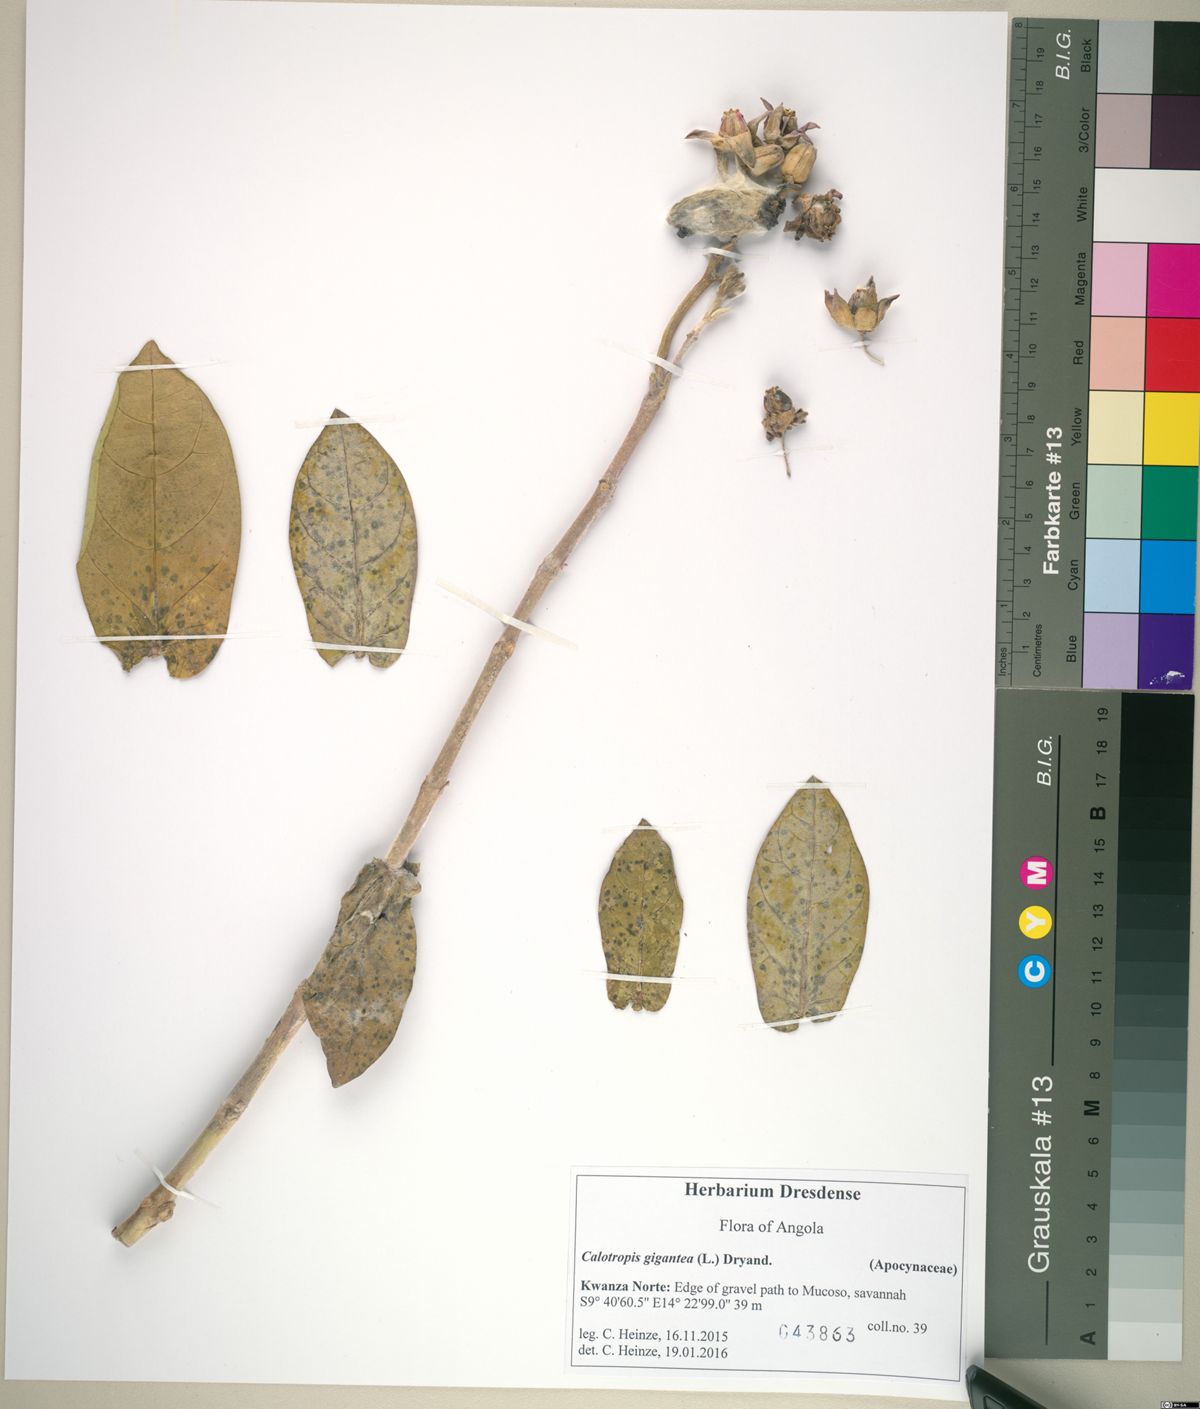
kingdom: Plantae
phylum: Tracheophyta
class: Magnoliopsida
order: Gentianales
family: Apocynaceae
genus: Calotropis
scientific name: Calotropis gigantea
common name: Crown flower
